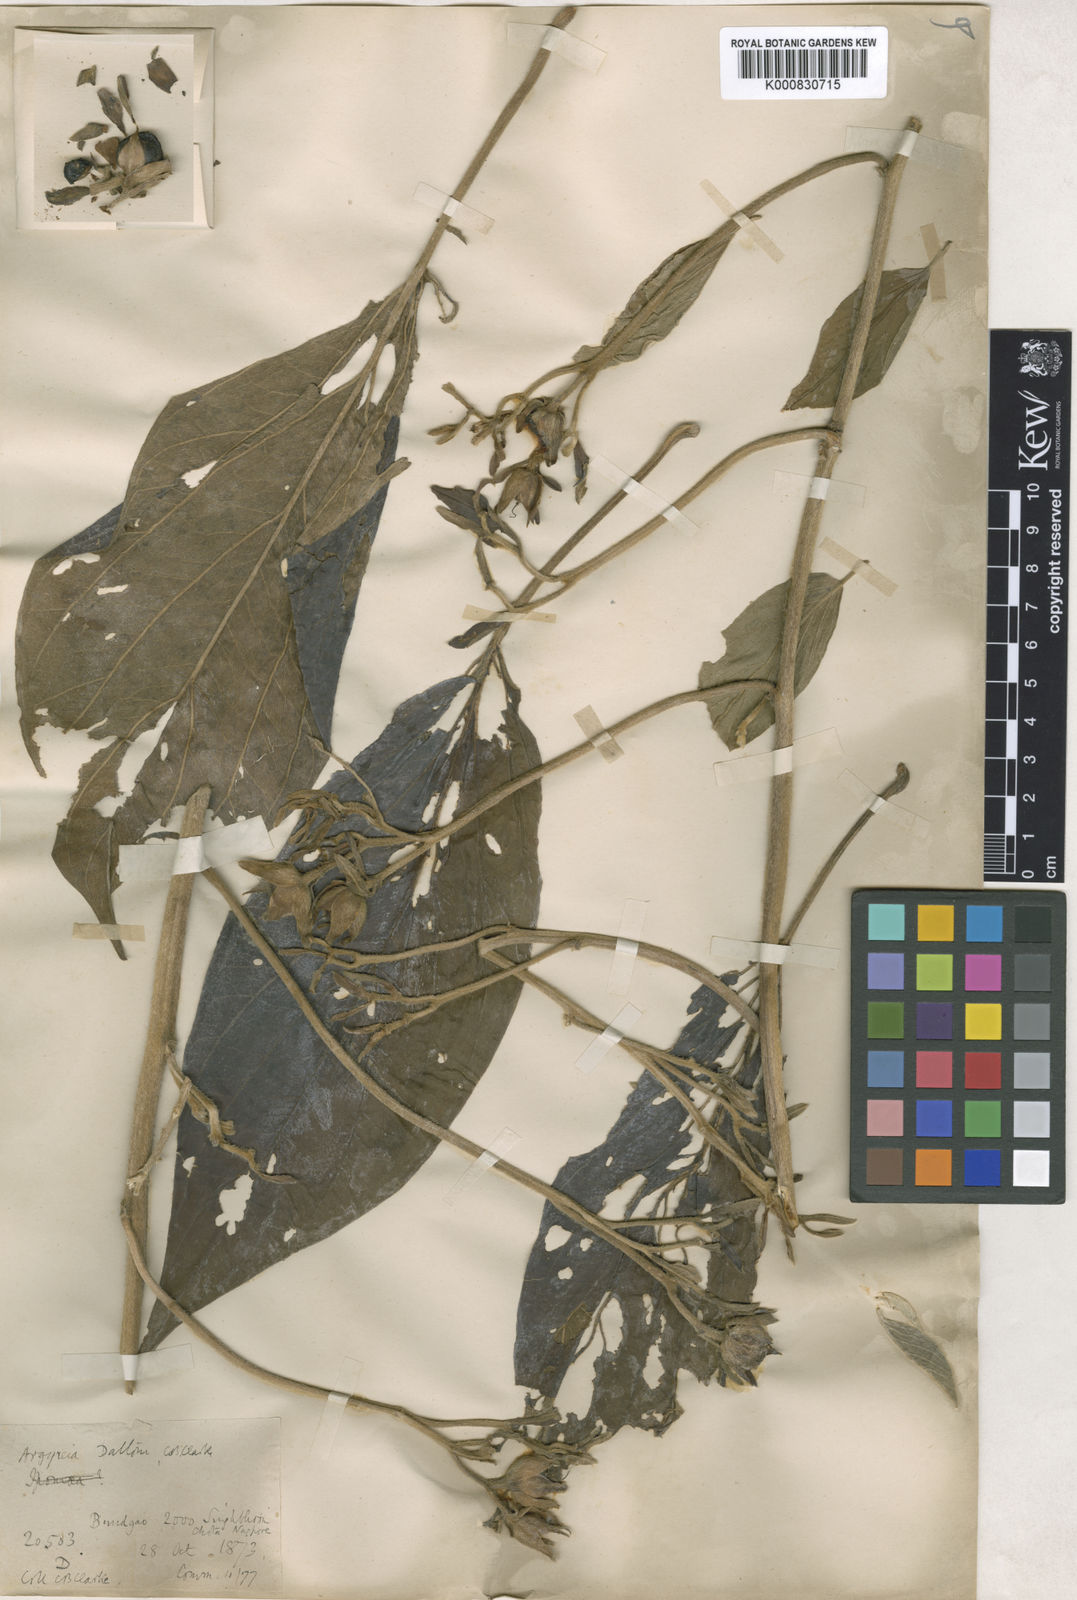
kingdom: Plantae
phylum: Tracheophyta
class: Magnoliopsida
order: Solanales
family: Convolvulaceae
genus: Argyreia
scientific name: Argyreia daltonii
